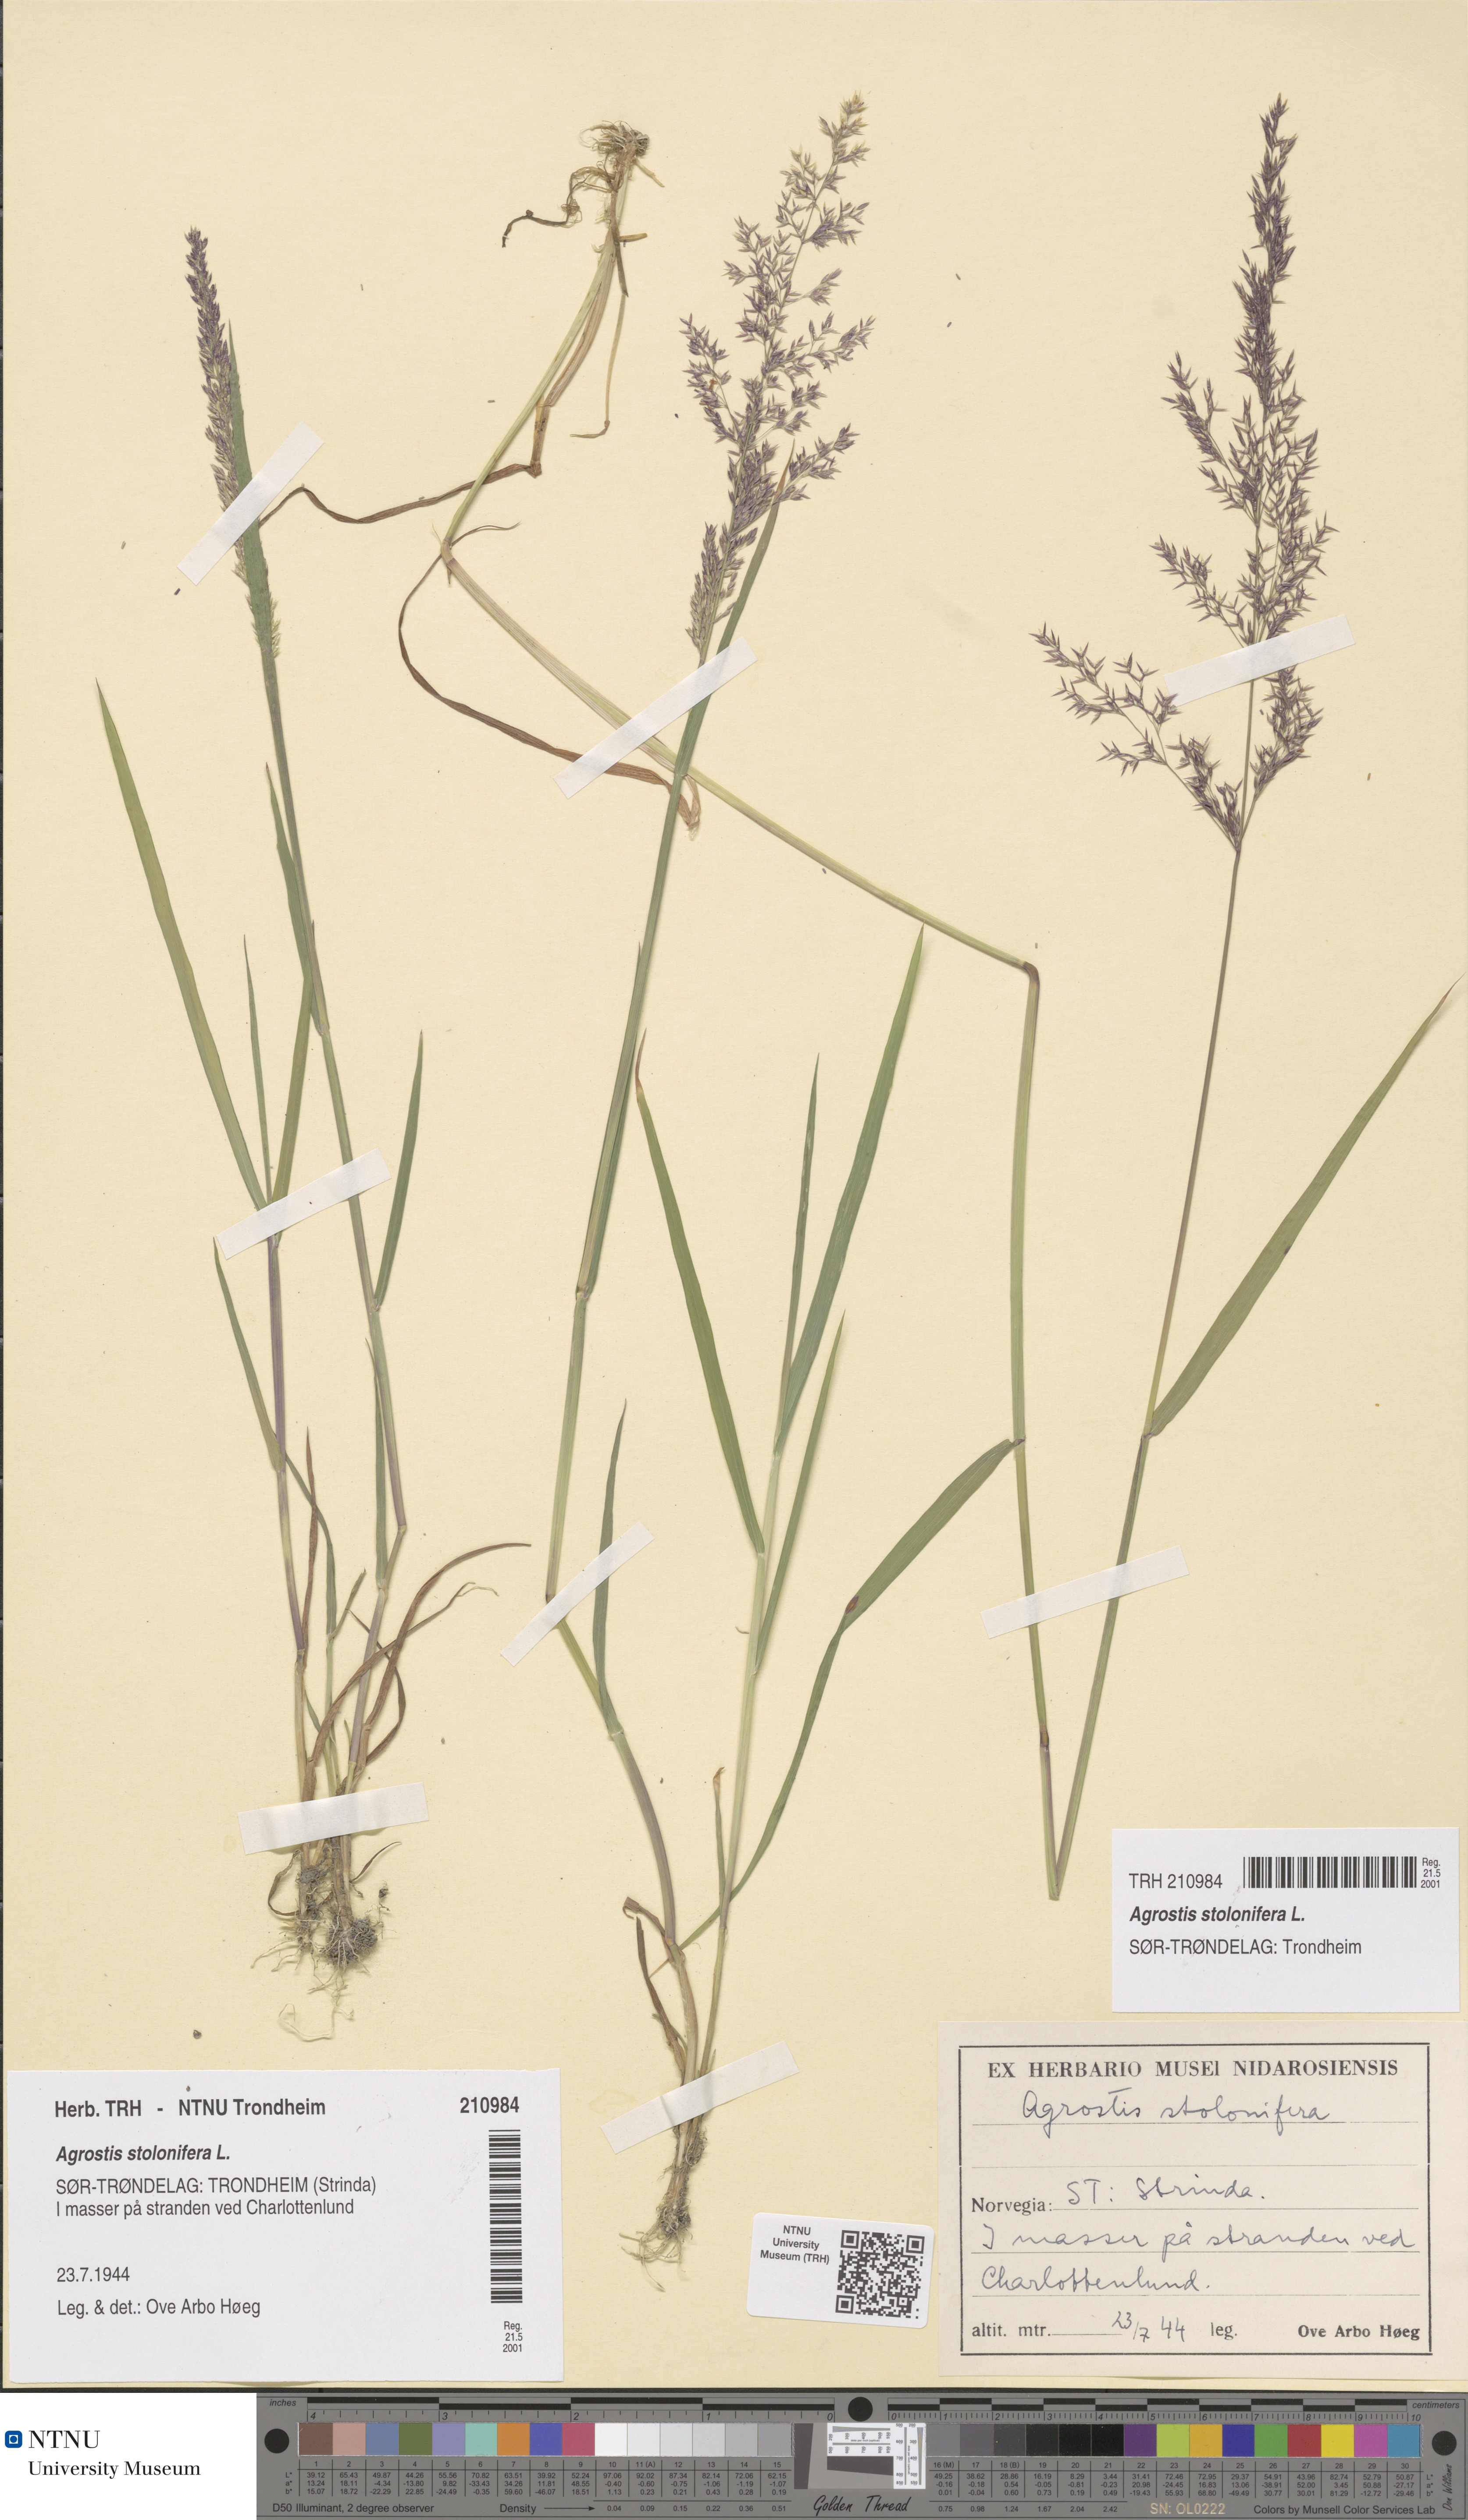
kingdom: Plantae
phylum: Tracheophyta
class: Liliopsida
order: Poales
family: Poaceae
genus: Agrostis
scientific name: Agrostis stolonifera
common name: Creeping bentgrass
